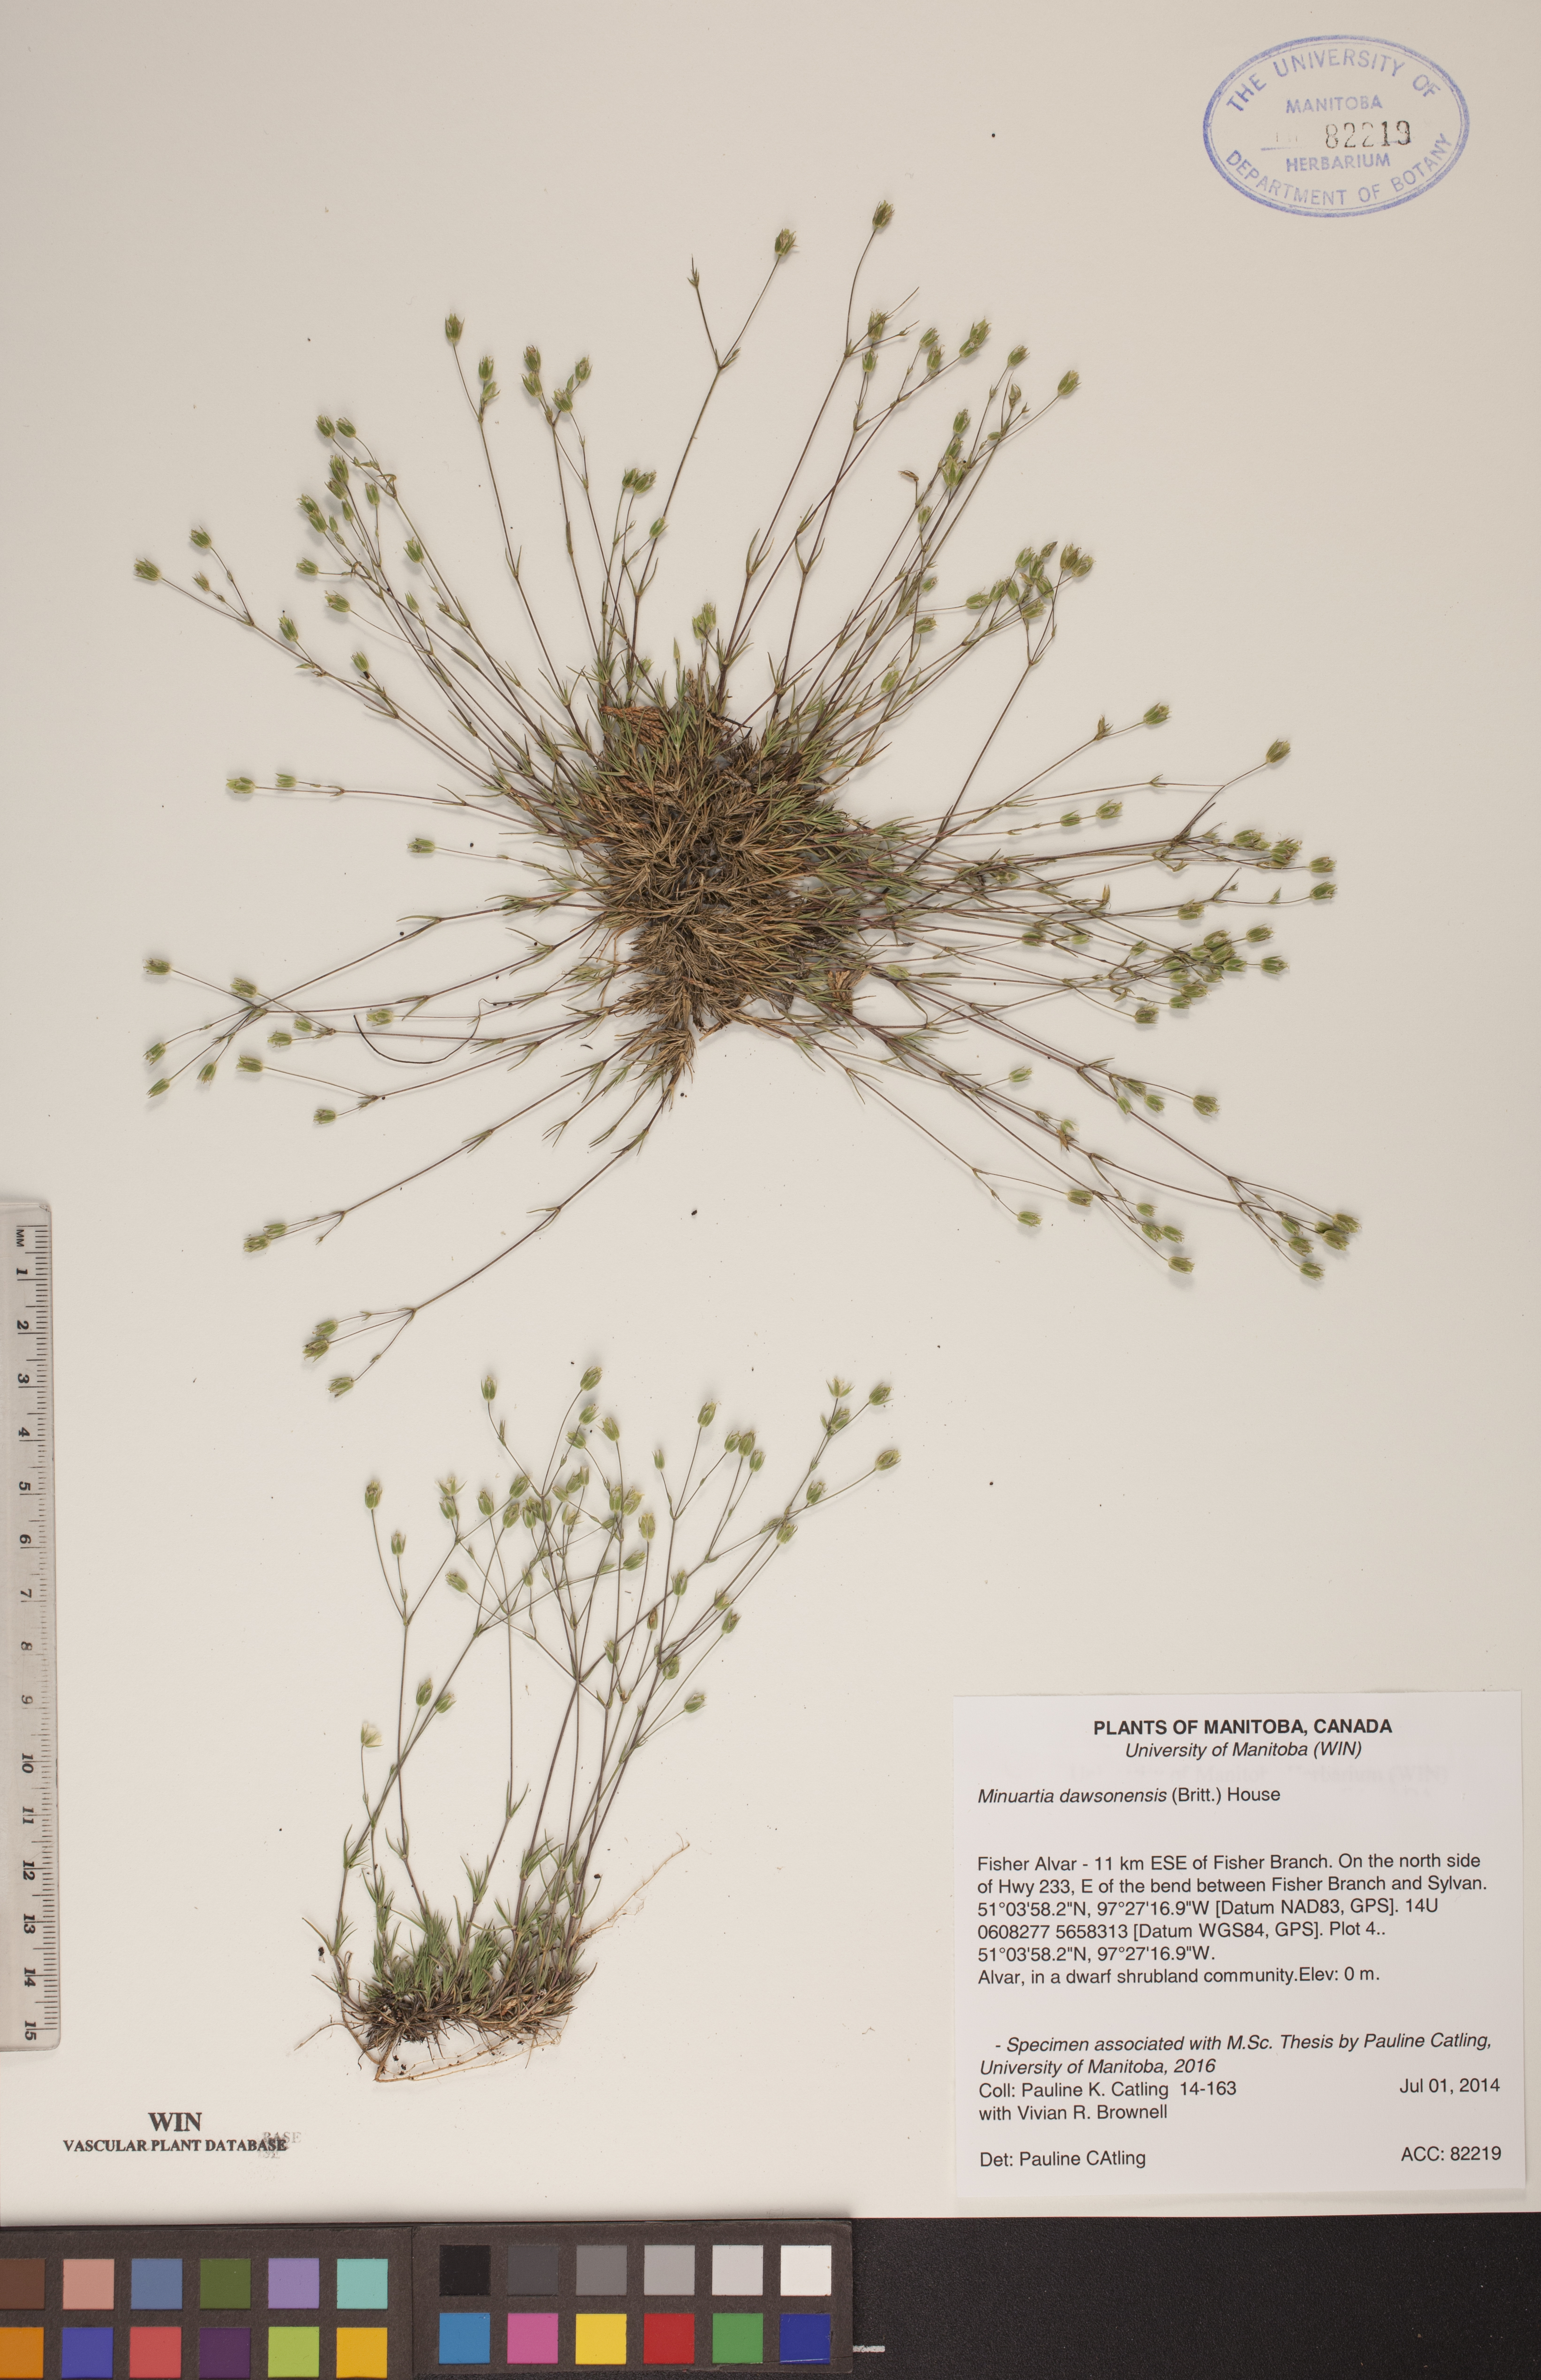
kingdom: Plantae
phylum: Tracheophyta
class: Magnoliopsida
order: Caryophyllales
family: Caryophyllaceae
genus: Sabulina
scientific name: Sabulina dawsonensis
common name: Dawson's cockle
